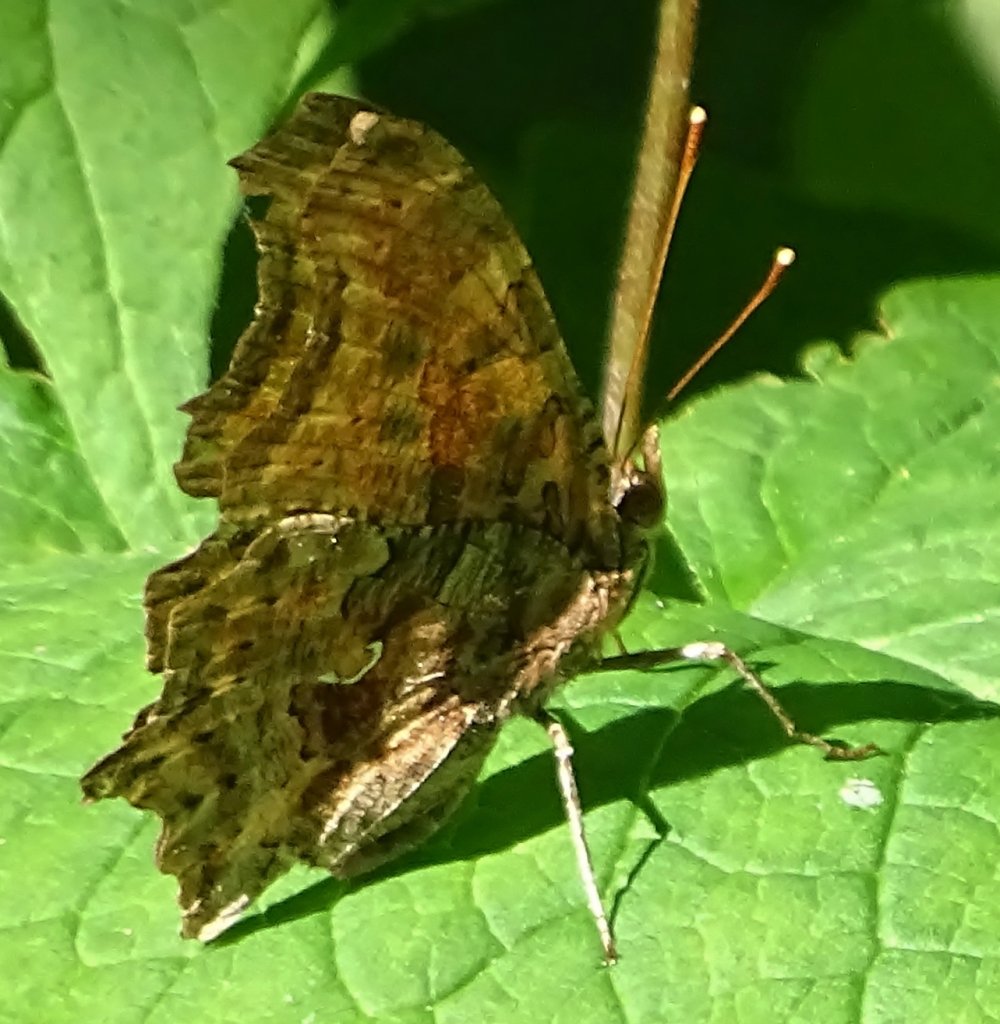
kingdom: Animalia
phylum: Arthropoda
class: Insecta
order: Lepidoptera
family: Nymphalidae
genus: Polygonia
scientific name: Polygonia comma
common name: Eastern Comma
